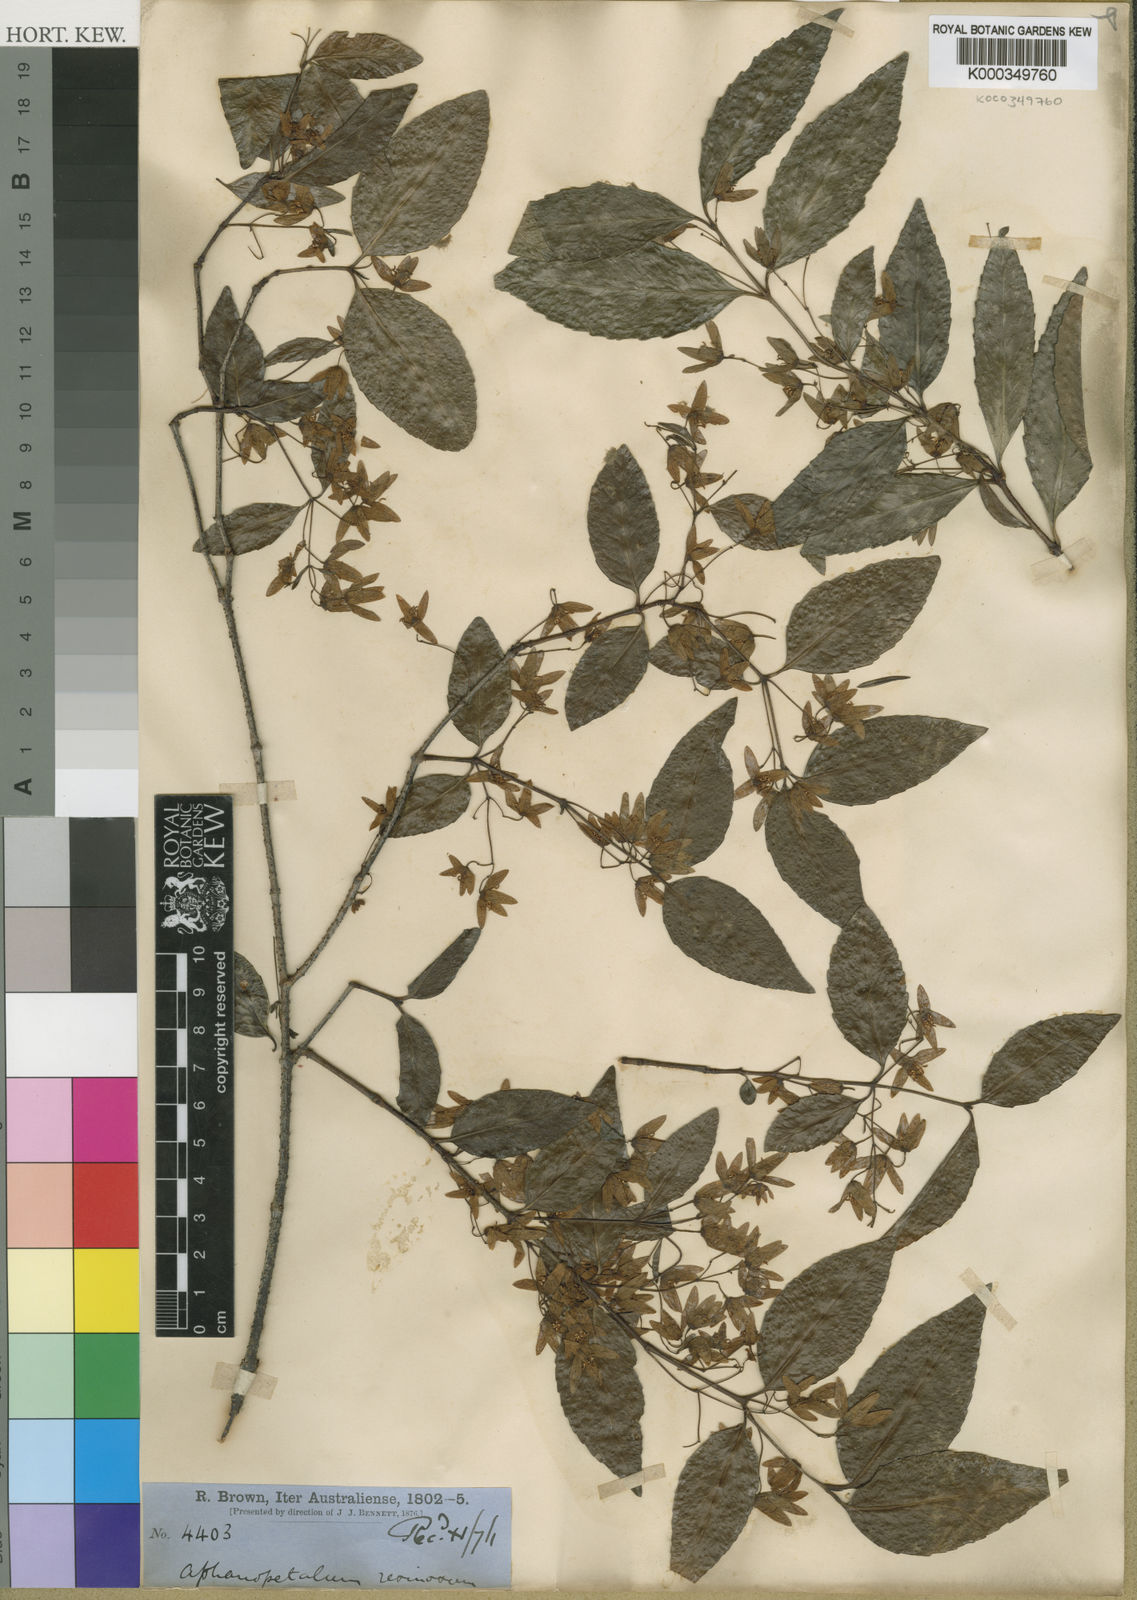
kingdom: Plantae
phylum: Tracheophyta
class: Magnoliopsida
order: Saxifragales
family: Aphanopetalaceae
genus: Aphanopetalum
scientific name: Aphanopetalum resinosum
